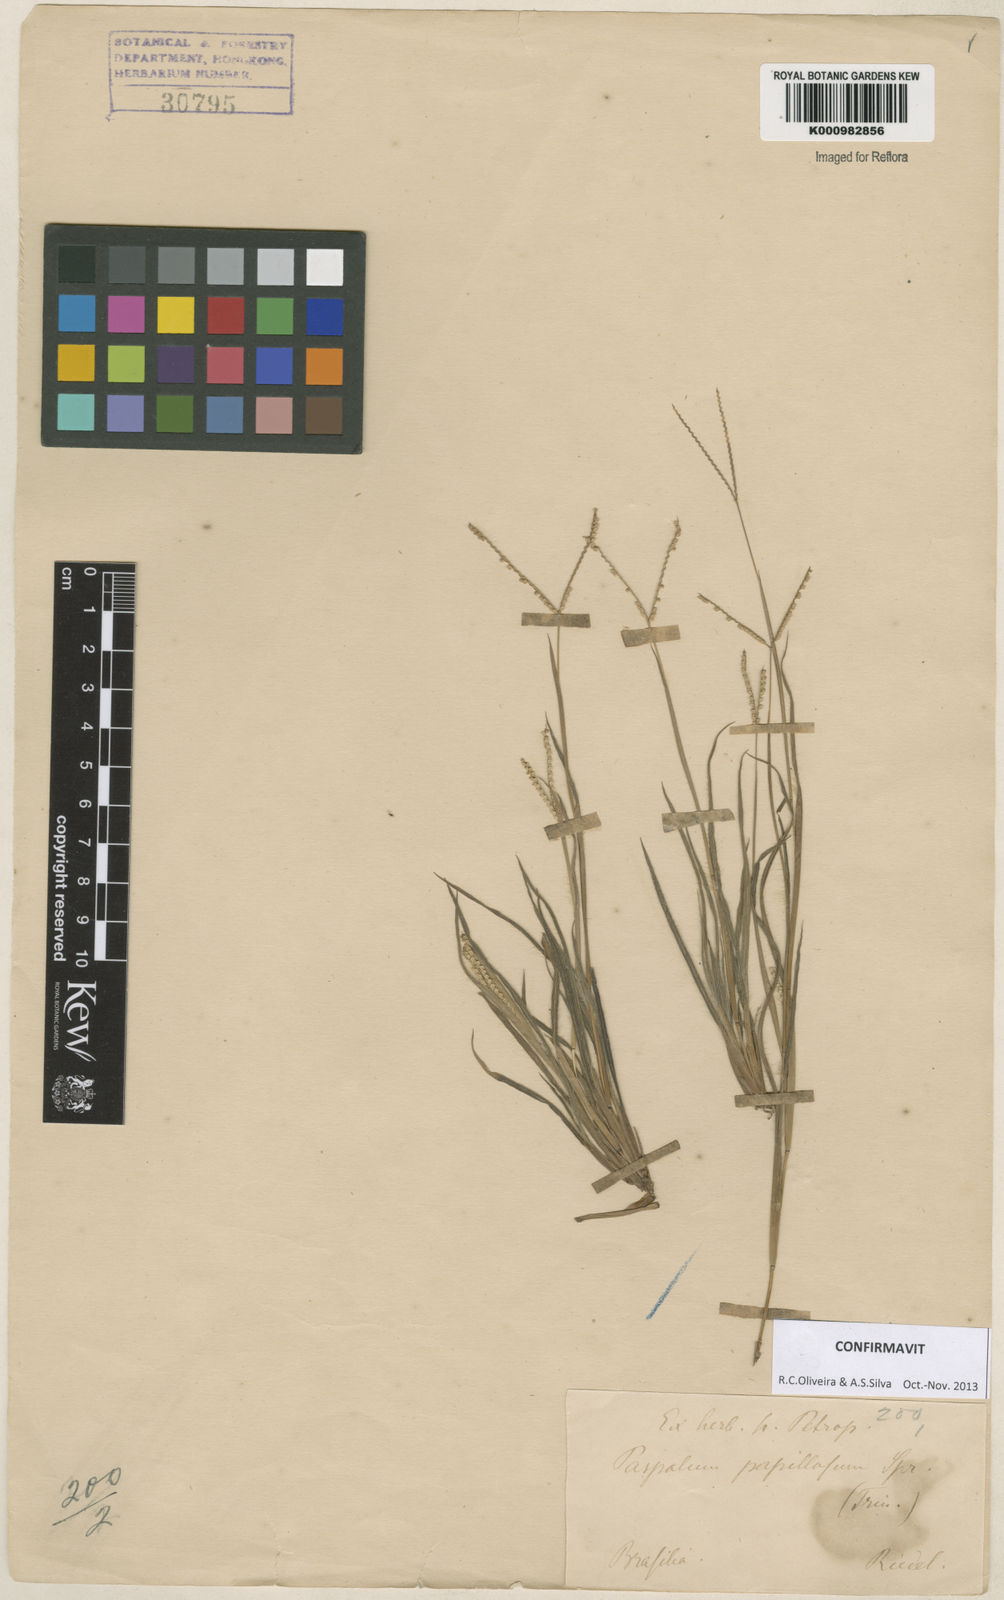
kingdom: Plantae
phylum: Tracheophyta
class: Liliopsida
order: Poales
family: Poaceae
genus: Paspalum
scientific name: Paspalum multicaule
